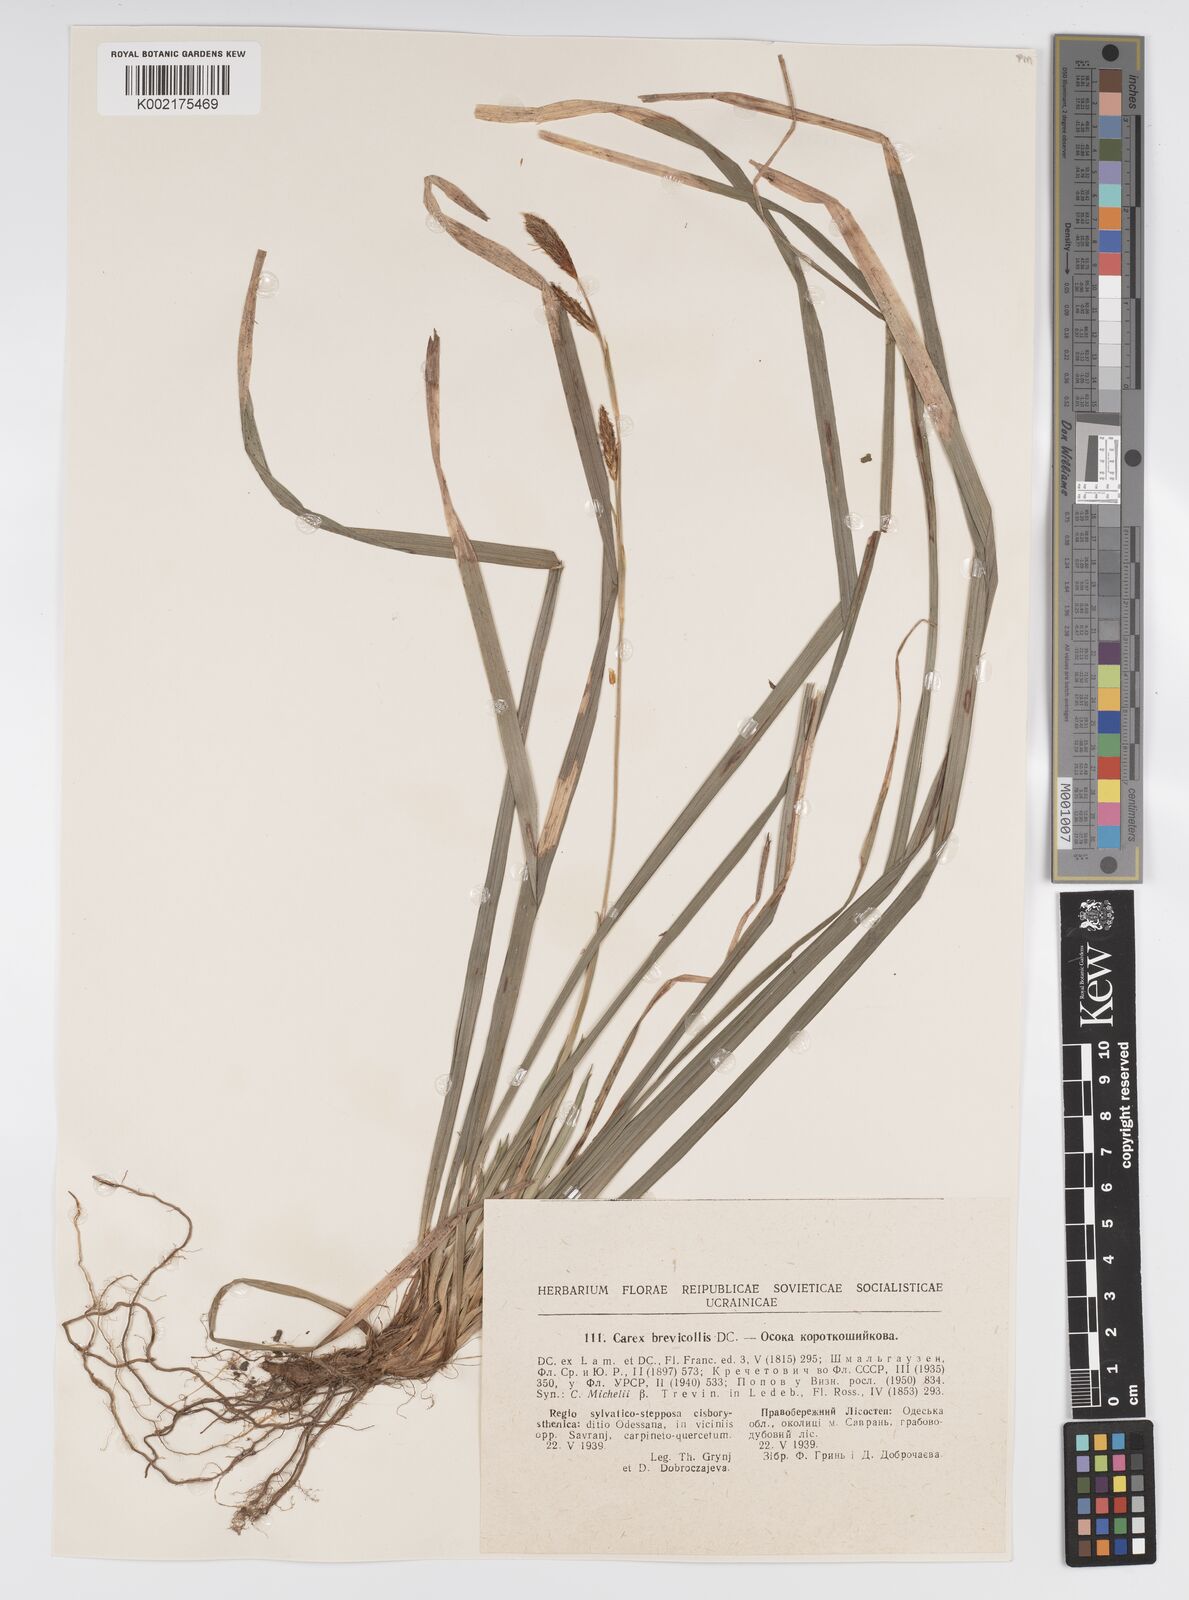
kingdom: Plantae
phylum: Tracheophyta
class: Liliopsida
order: Poales
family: Cyperaceae
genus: Carex
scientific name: Carex brevicollis
